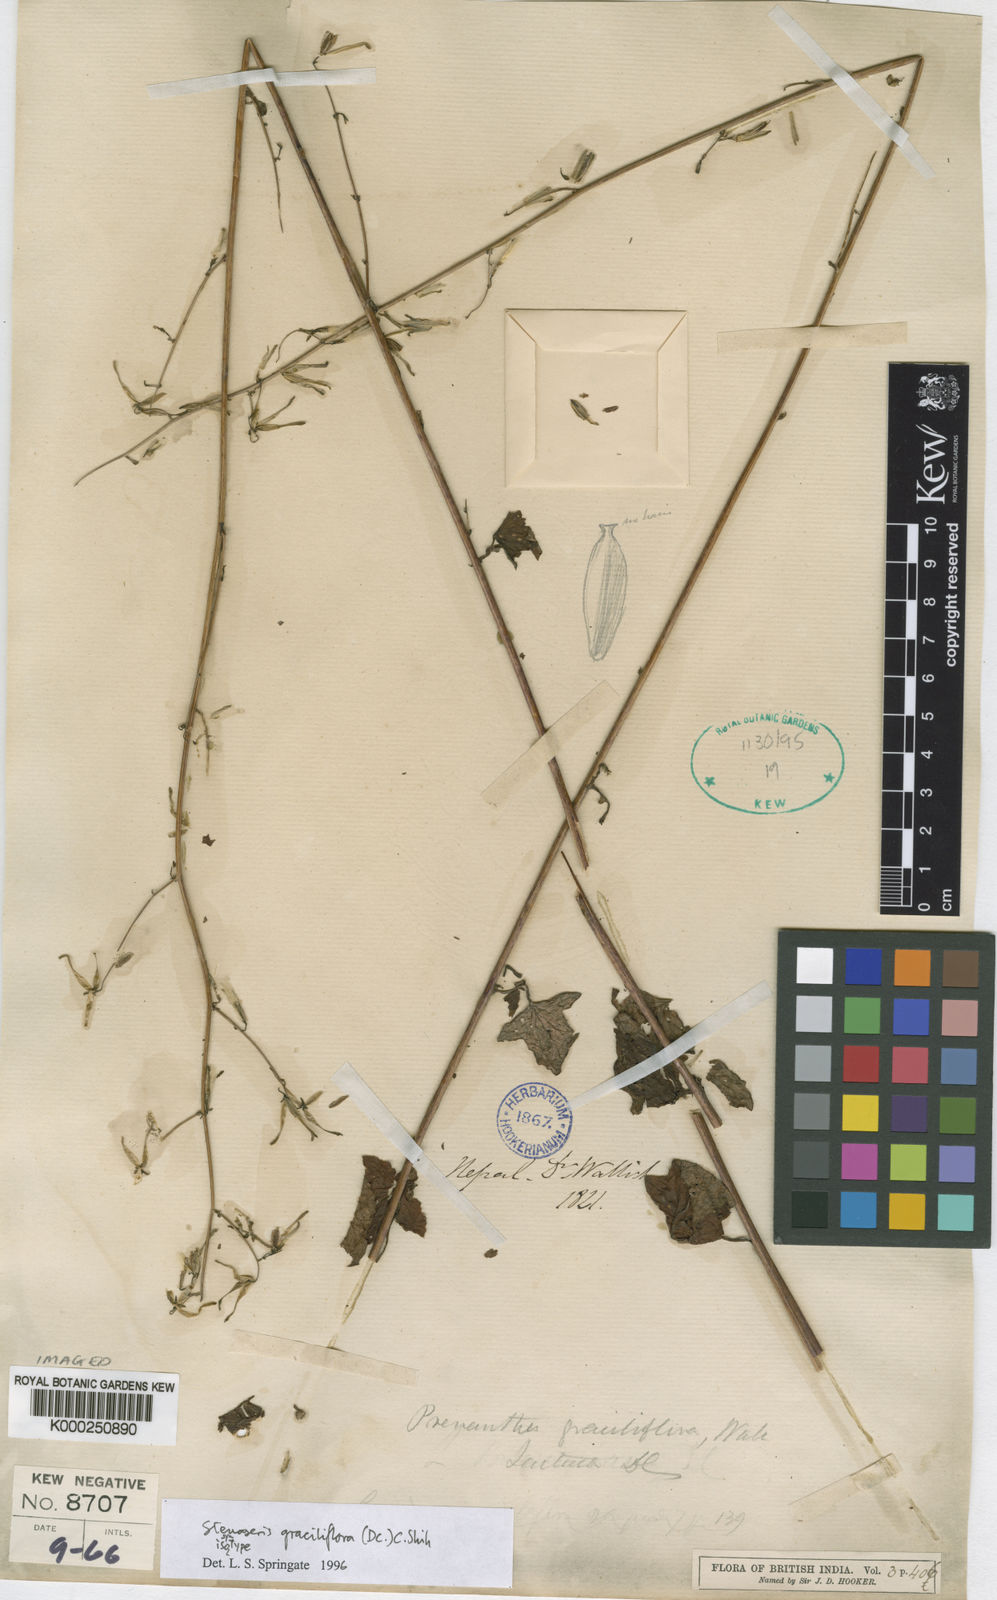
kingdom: Plantae
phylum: Tracheophyta
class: Magnoliopsida
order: Asterales
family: Asteraceae
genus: Melanoseris
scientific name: Melanoseris graciliflora
